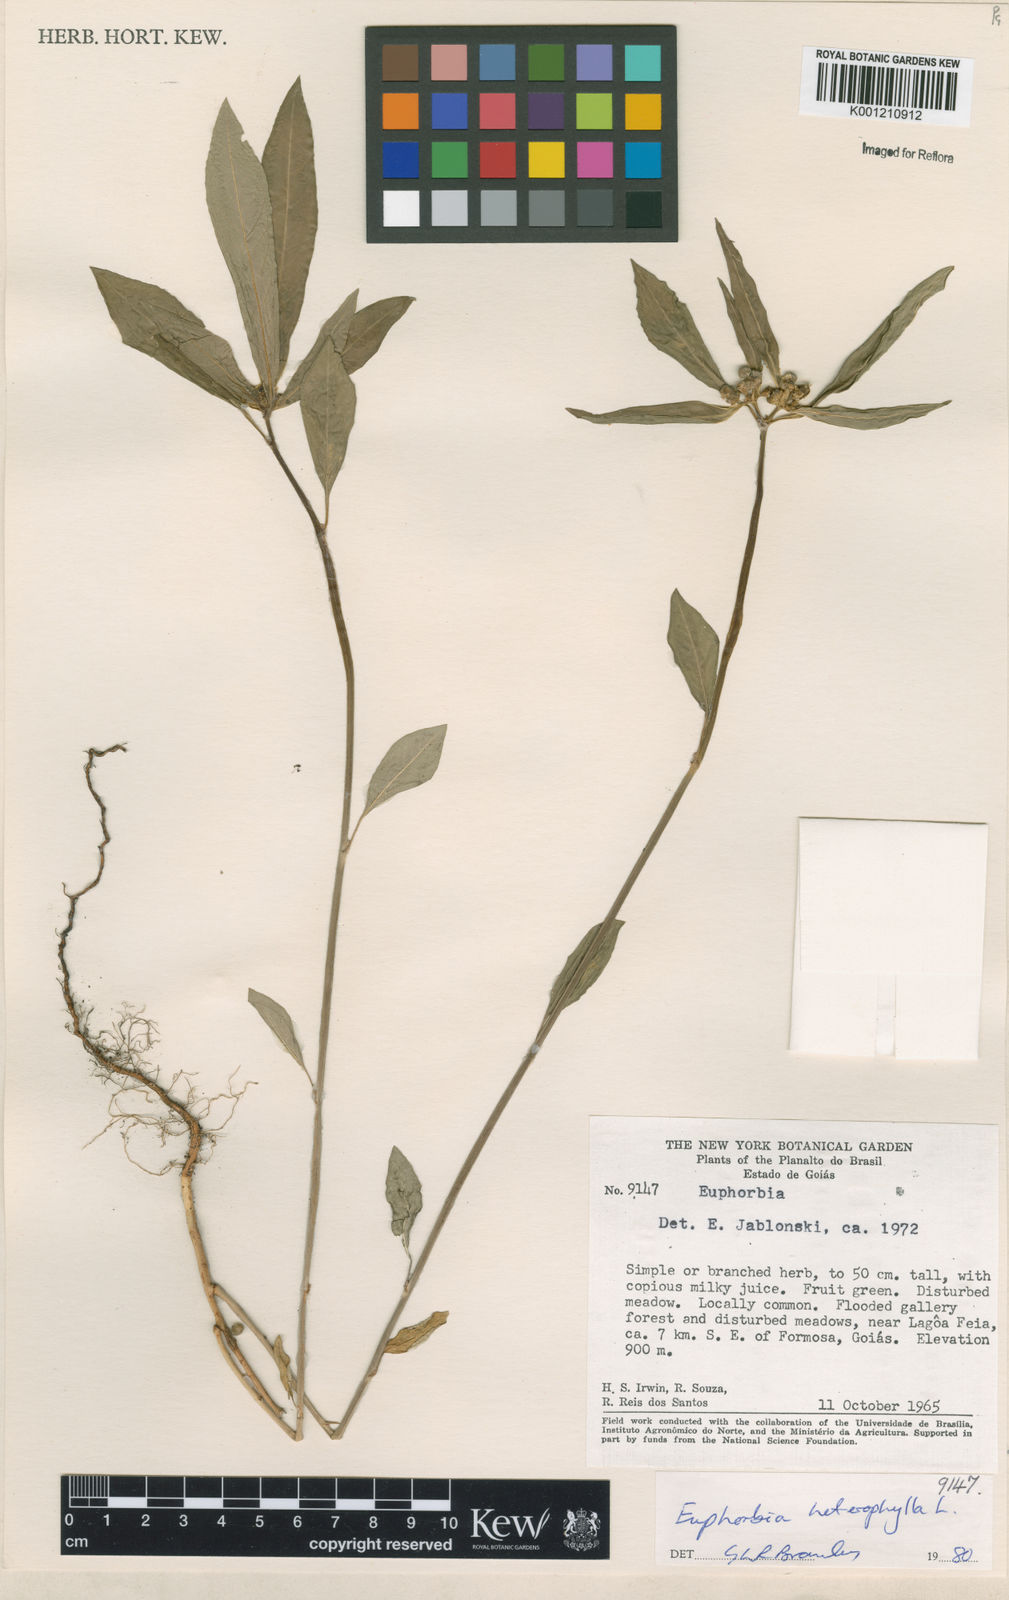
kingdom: Plantae
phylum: Tracheophyta
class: Magnoliopsida
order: Malpighiales
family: Euphorbiaceae
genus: Euphorbia
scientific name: Euphorbia heterophylla
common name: Mexican fireplant
